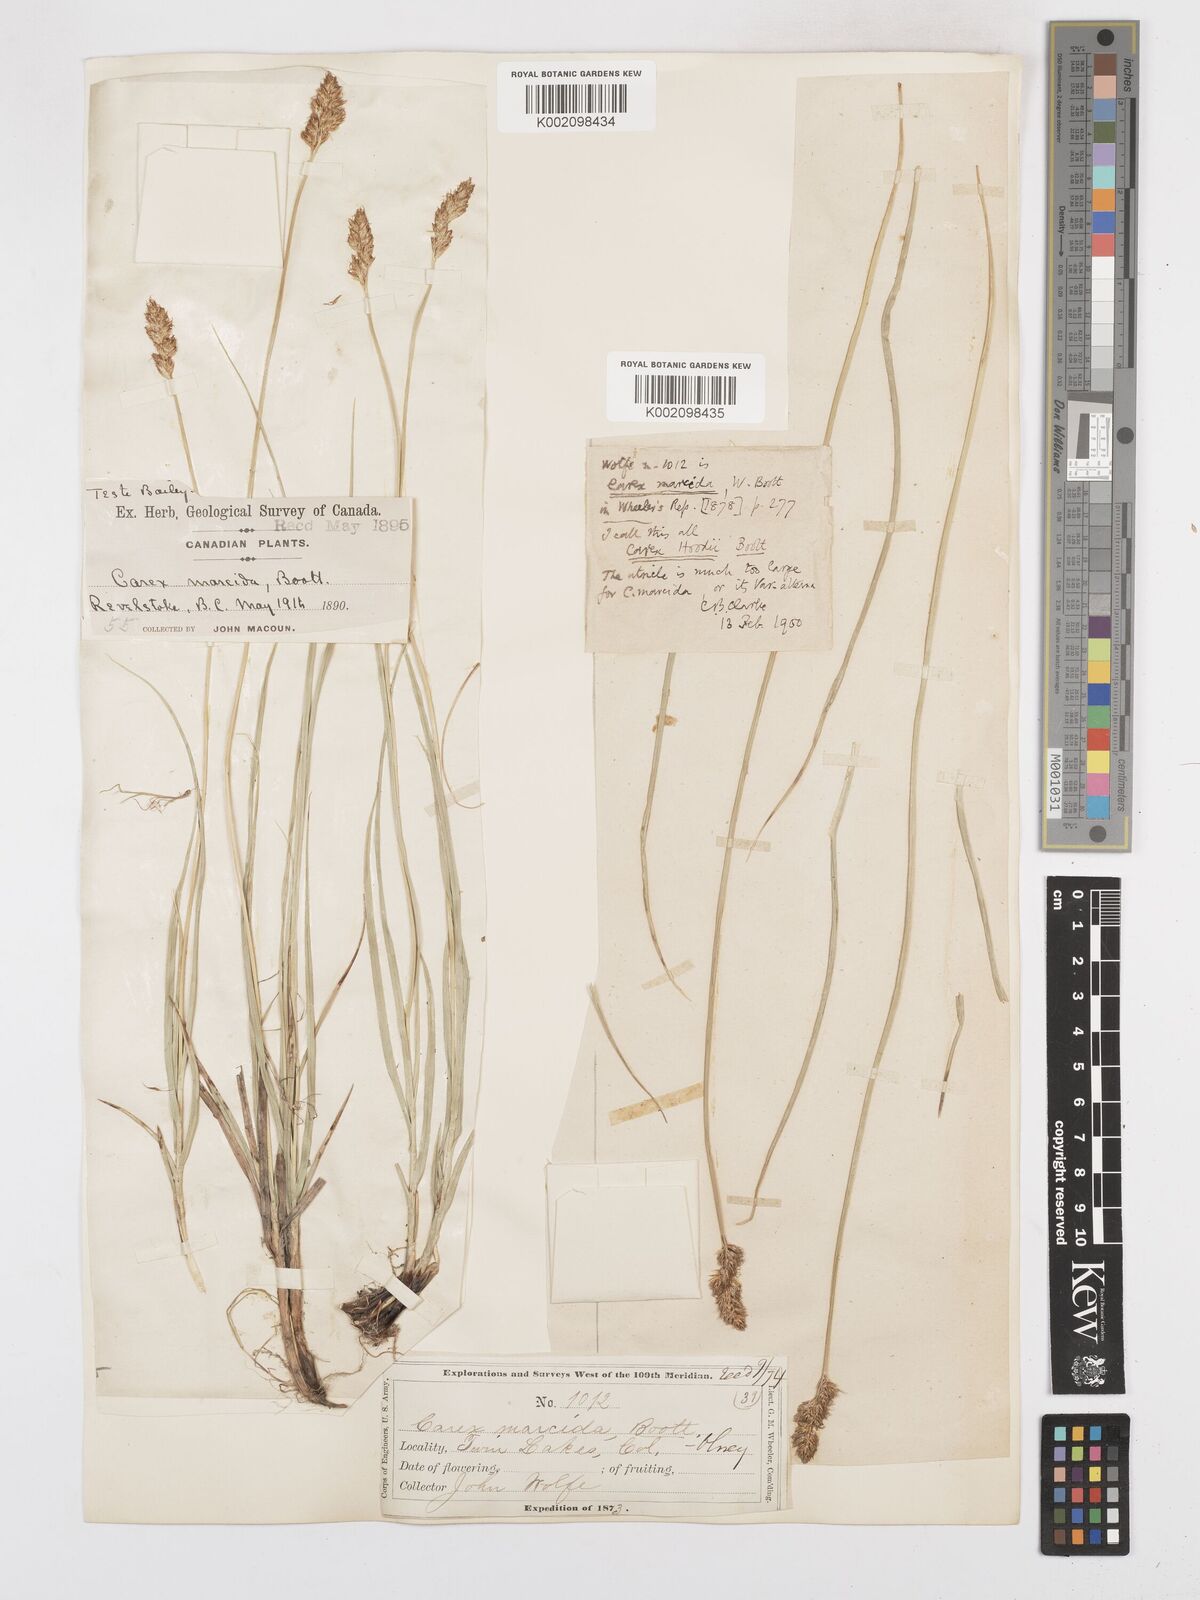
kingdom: Plantae
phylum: Tracheophyta
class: Liliopsida
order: Poales
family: Cyperaceae
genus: Carex
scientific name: Carex hoodii
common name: Hood's sedge
